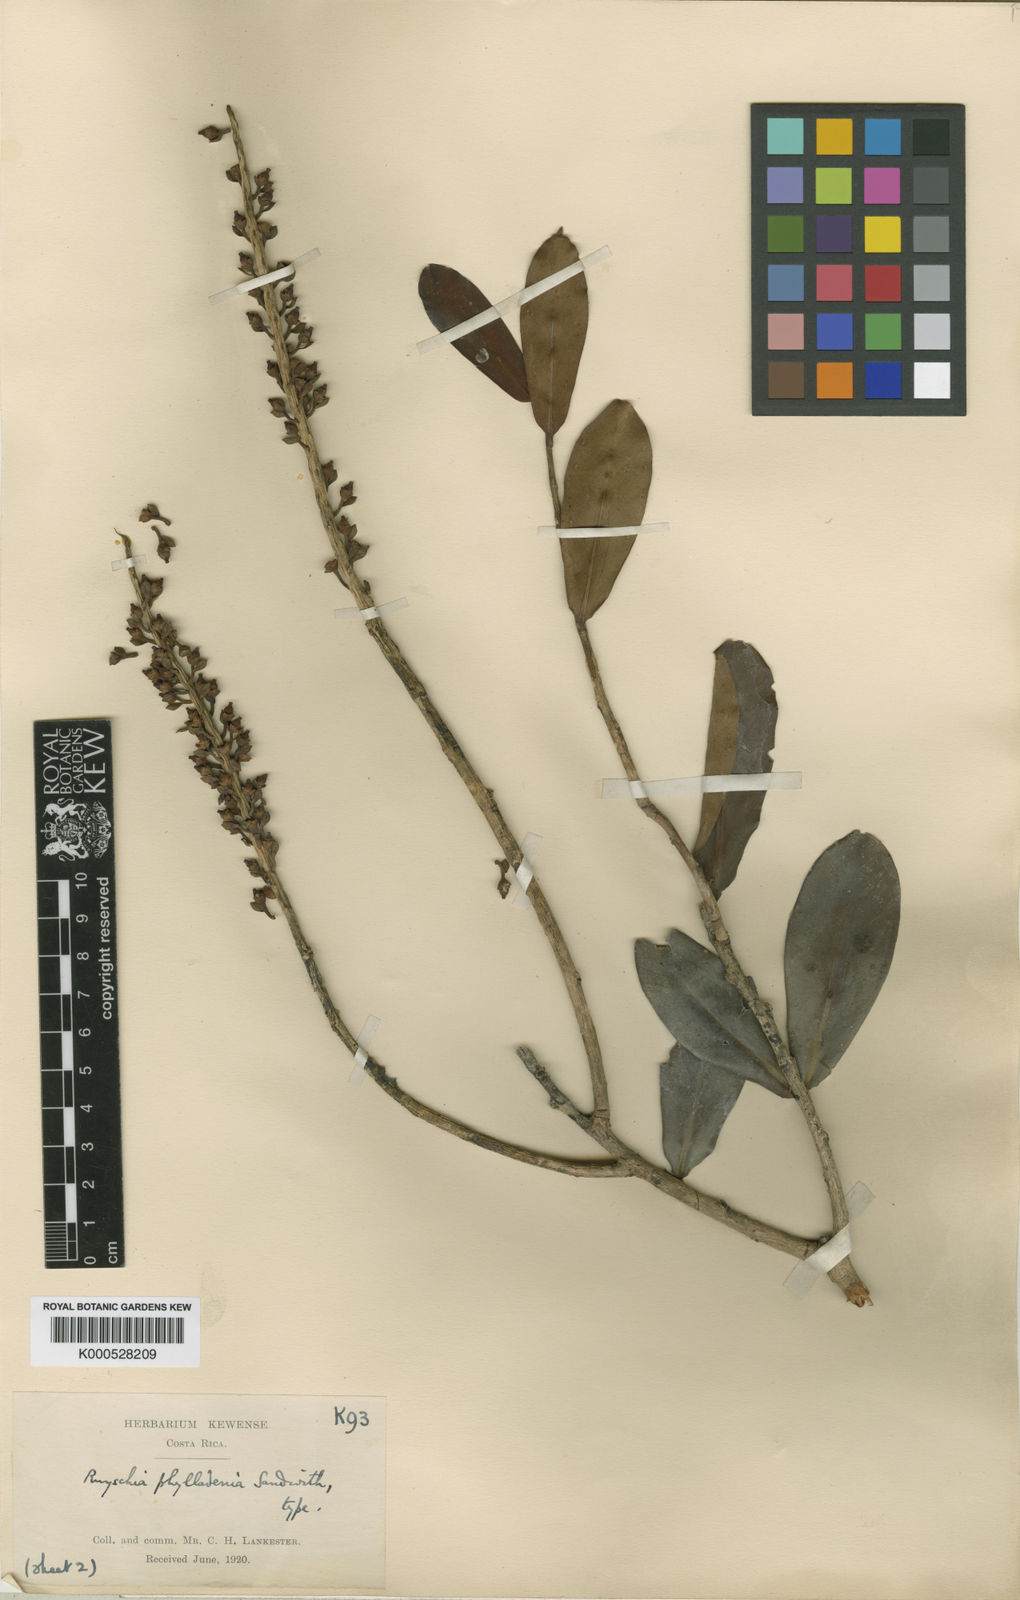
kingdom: Plantae
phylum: Tracheophyta
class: Magnoliopsida
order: Ericales
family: Marcgraviaceae
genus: Ruyschia
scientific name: Ruyschia phylladenia
